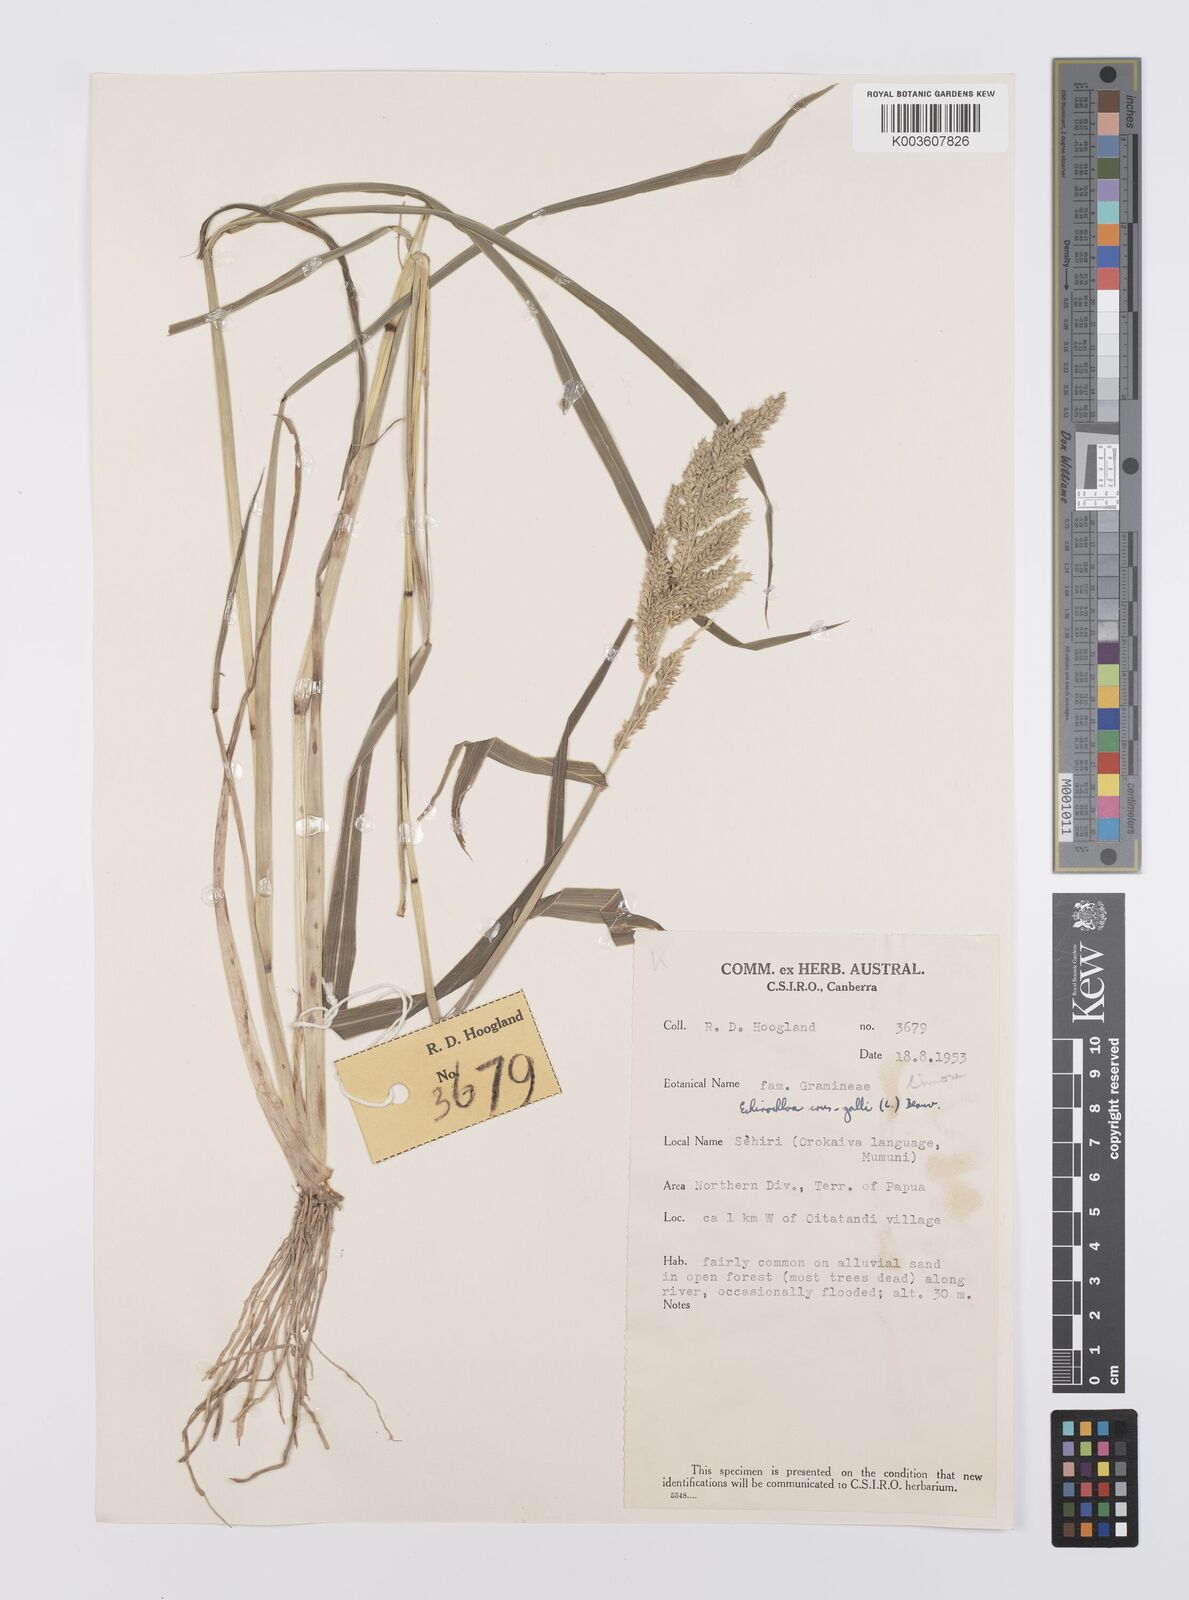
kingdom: Plantae
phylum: Tracheophyta
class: Liliopsida
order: Poales
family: Poaceae
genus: Echinochloa
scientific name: Echinochloa crus-galli
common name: Cockspur
